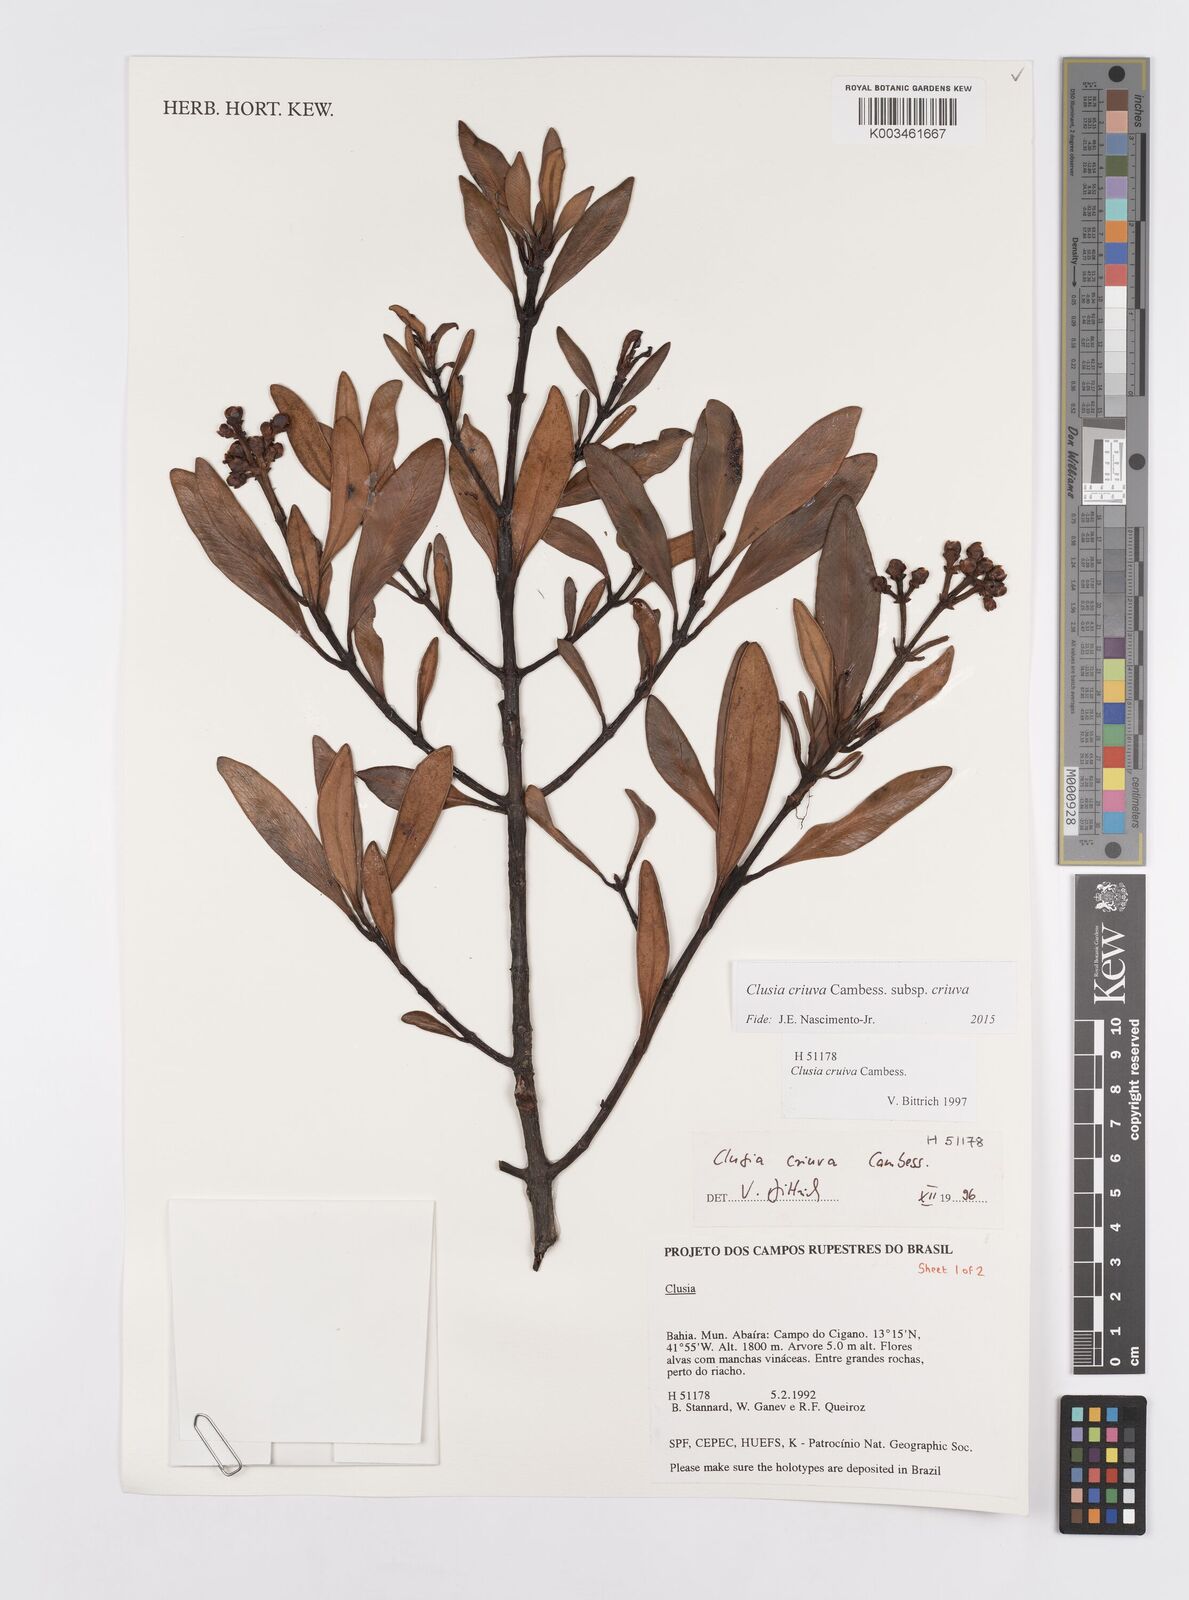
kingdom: Plantae
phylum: Tracheophyta
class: Magnoliopsida
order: Malpighiales
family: Clusiaceae
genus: Clusia
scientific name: Clusia criuva
